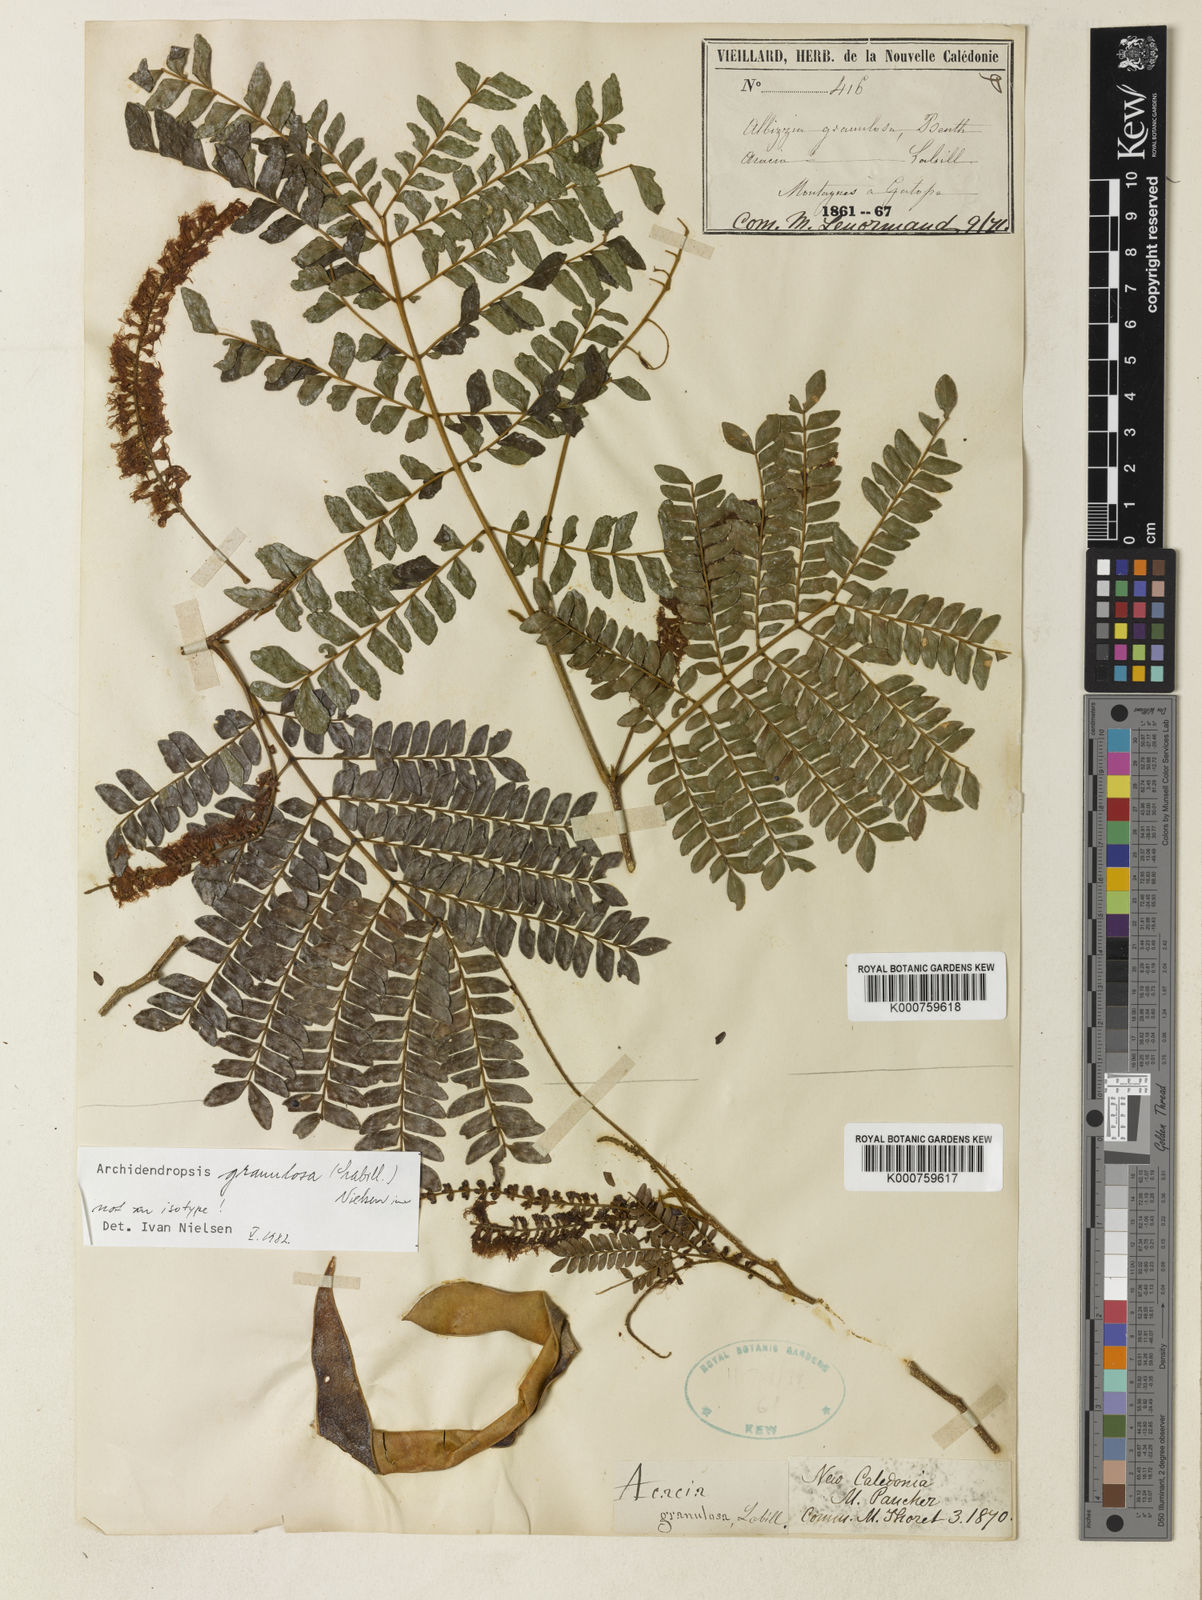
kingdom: Plantae
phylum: Tracheophyta
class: Magnoliopsida
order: Fabales
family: Fabaceae
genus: Archidendropsis
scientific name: Archidendropsis granulosa
